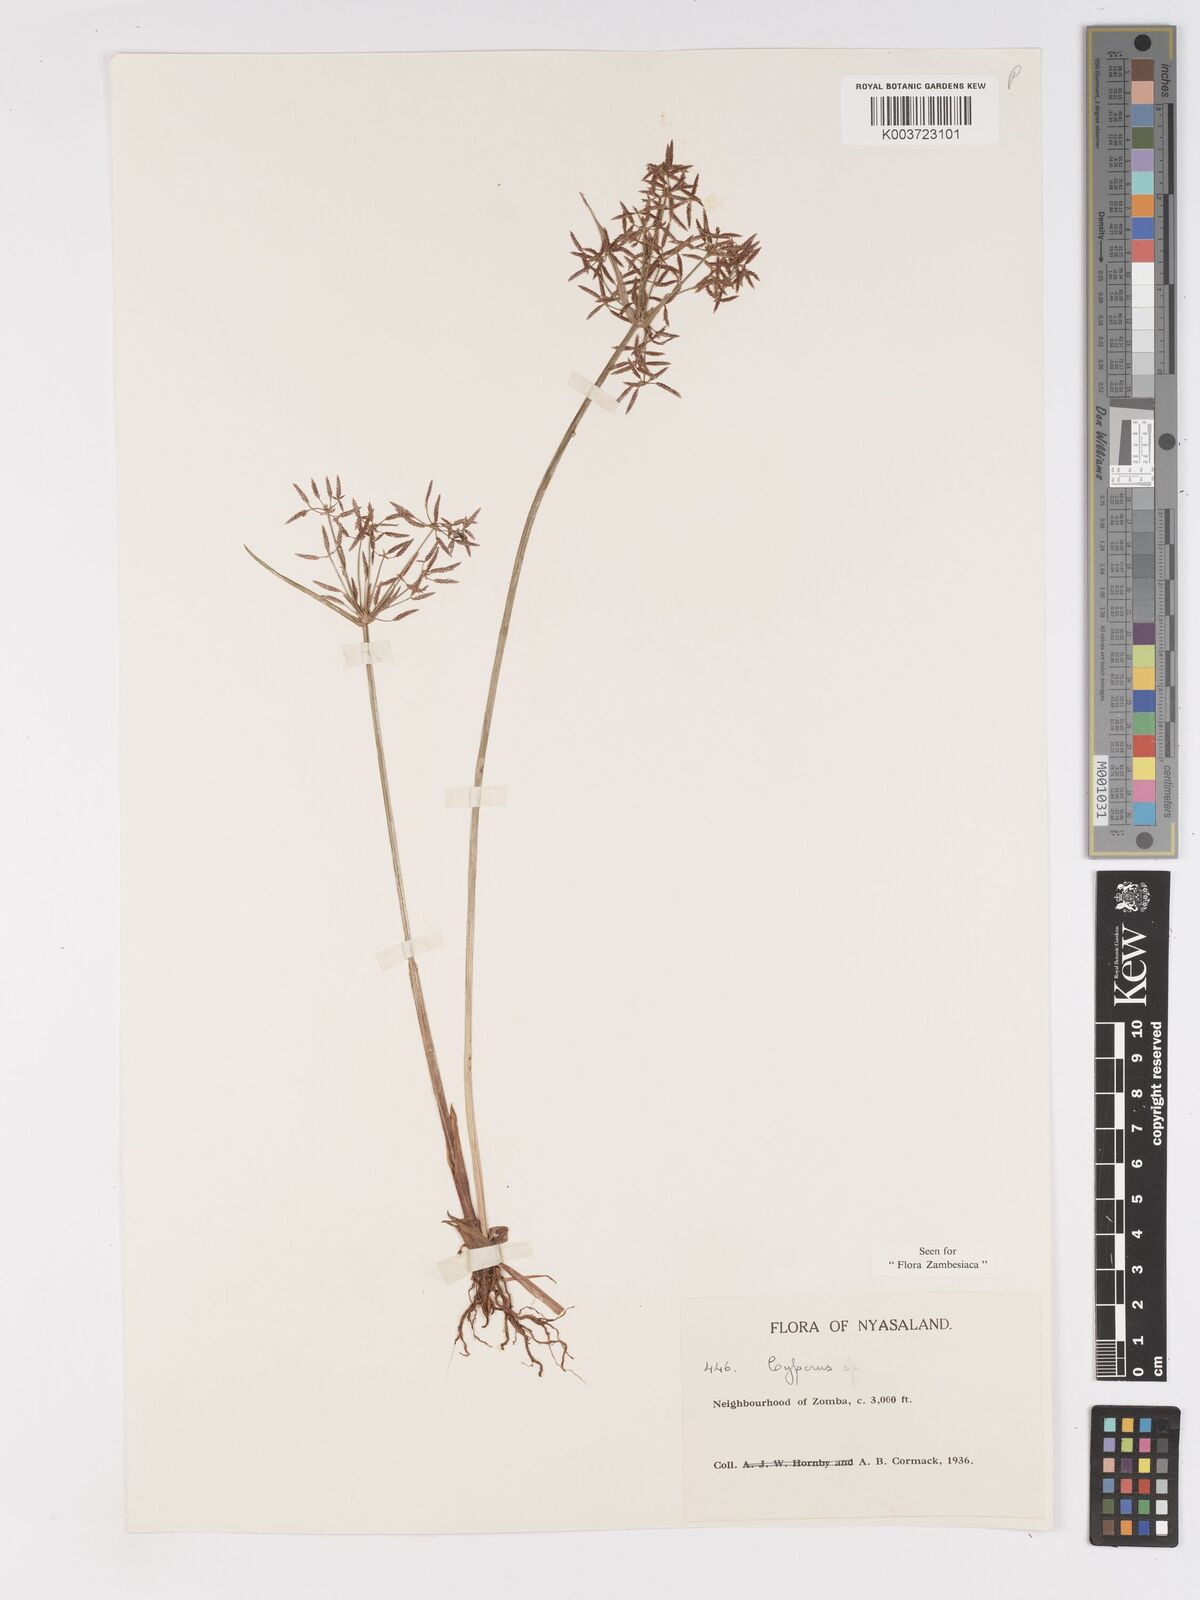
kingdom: Plantae
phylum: Tracheophyta
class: Liliopsida
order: Poales
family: Cyperaceae
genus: Cyperus
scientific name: Cyperus haspan
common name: Haspan flatsedge
